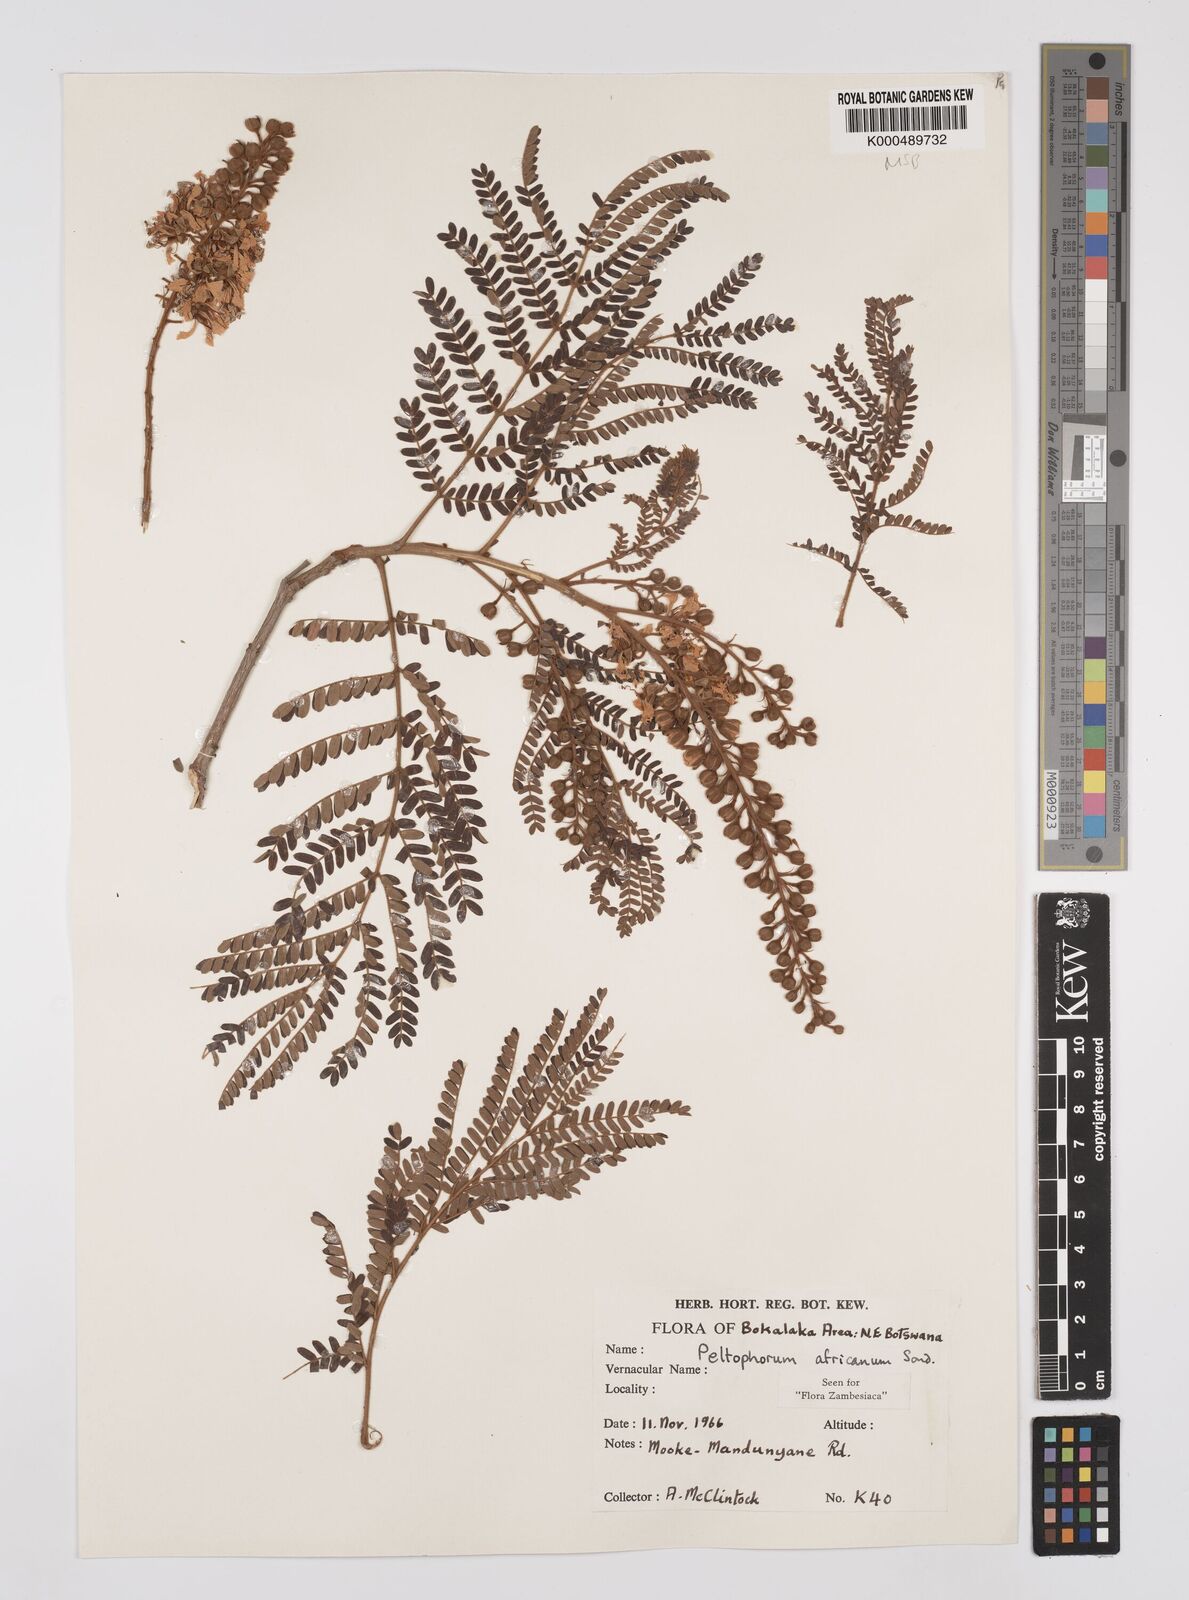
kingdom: Plantae
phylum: Tracheophyta
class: Magnoliopsida
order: Fabales
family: Fabaceae
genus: Peltophorum
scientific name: Peltophorum africanum
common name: African black wattle
